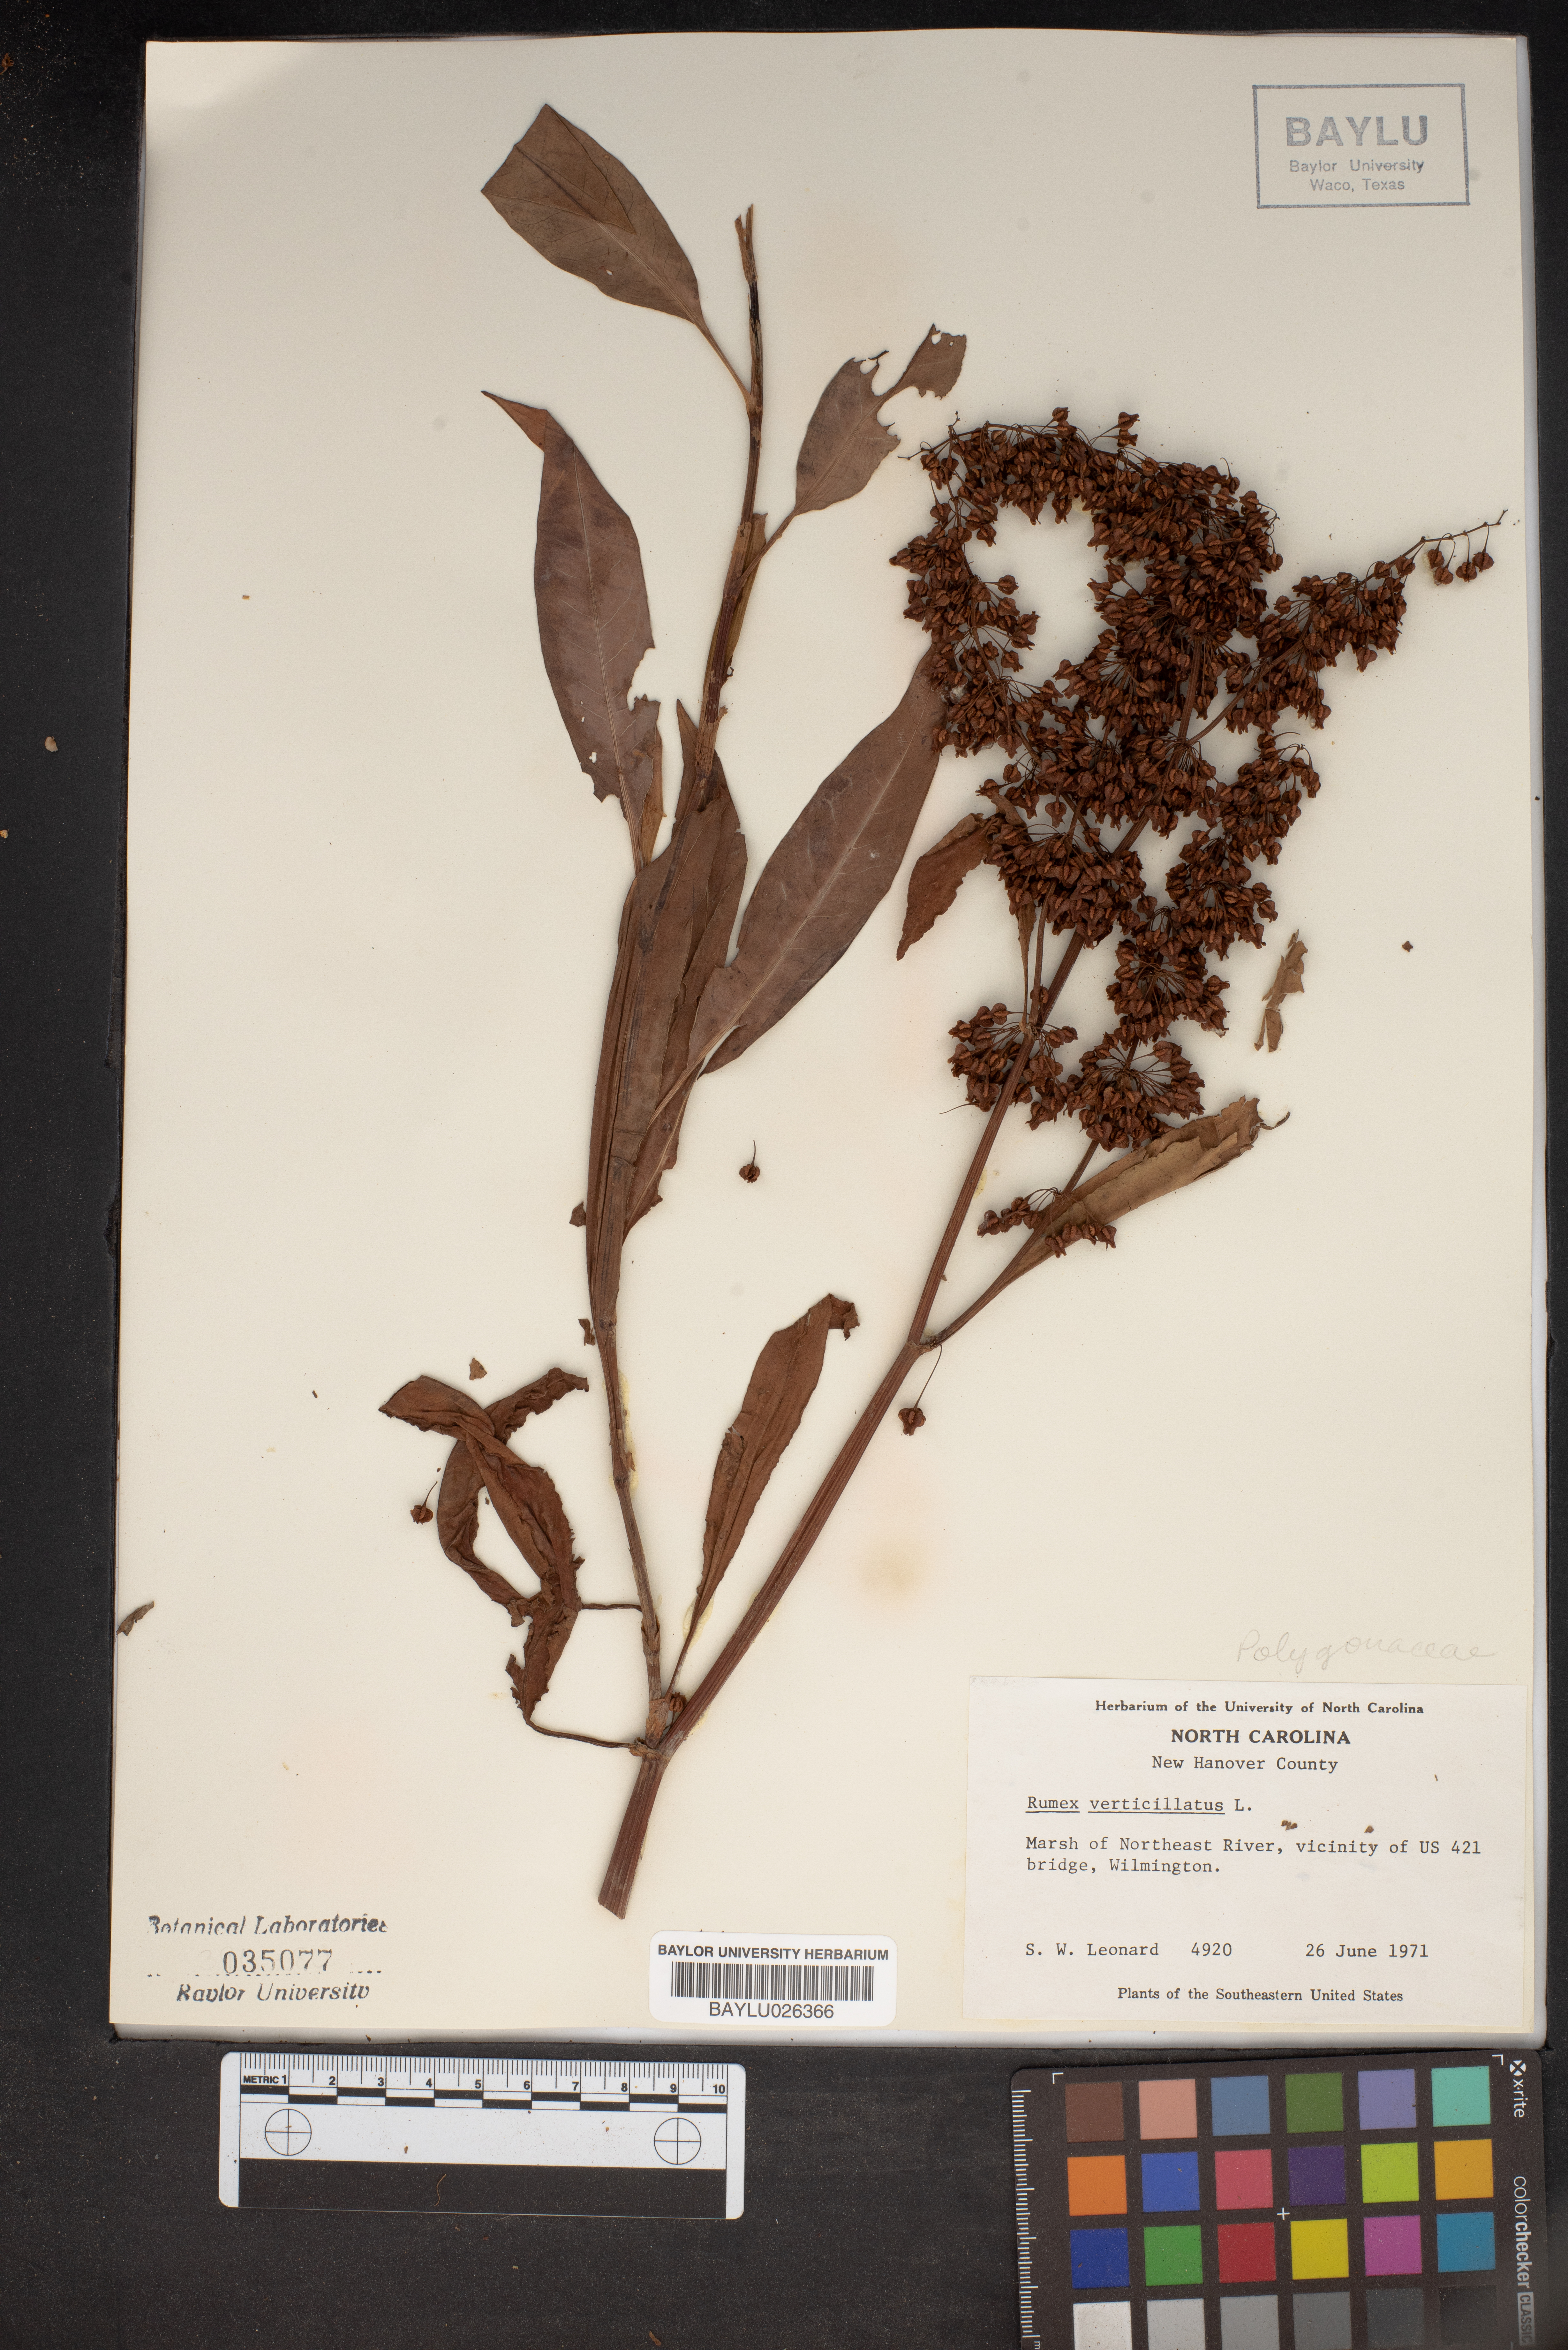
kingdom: Plantae
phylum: Tracheophyta
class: Magnoliopsida
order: Caryophyllales
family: Polygonaceae
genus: Rumex
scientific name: Rumex verticillatus
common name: Swamp dock
